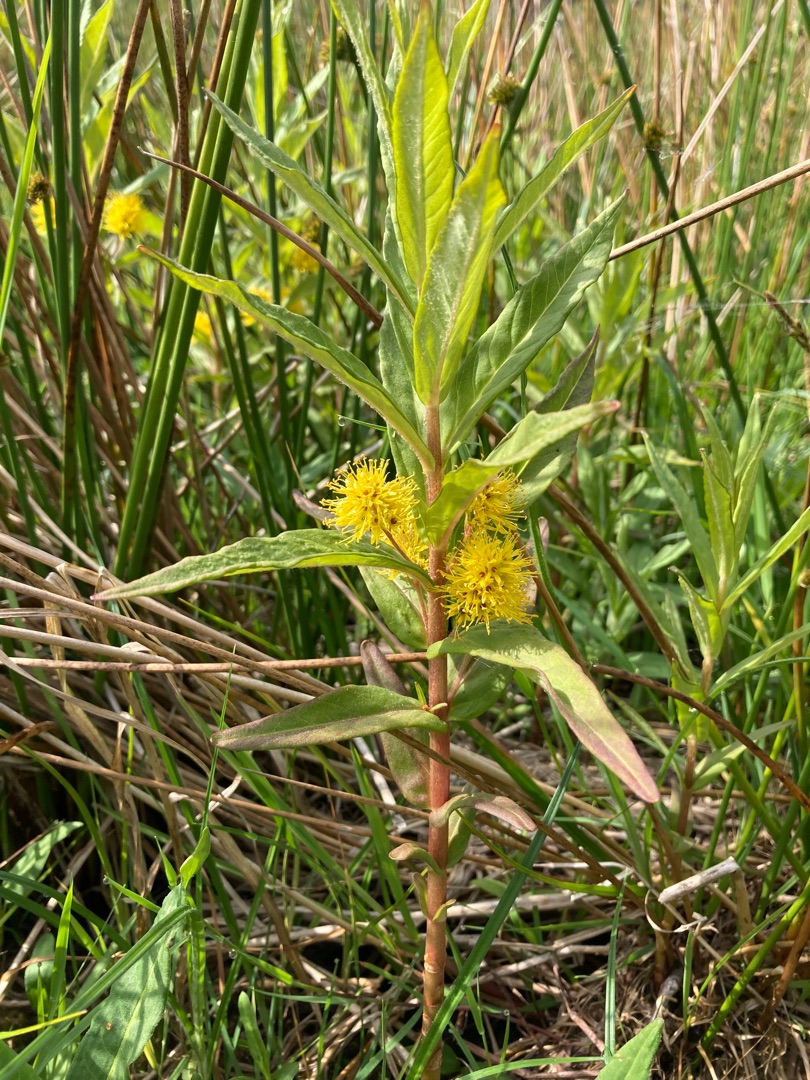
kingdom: Plantae
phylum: Tracheophyta
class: Magnoliopsida
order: Ericales
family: Primulaceae
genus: Lysimachia
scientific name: Lysimachia thyrsiflora
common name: Dusk-fredløs
